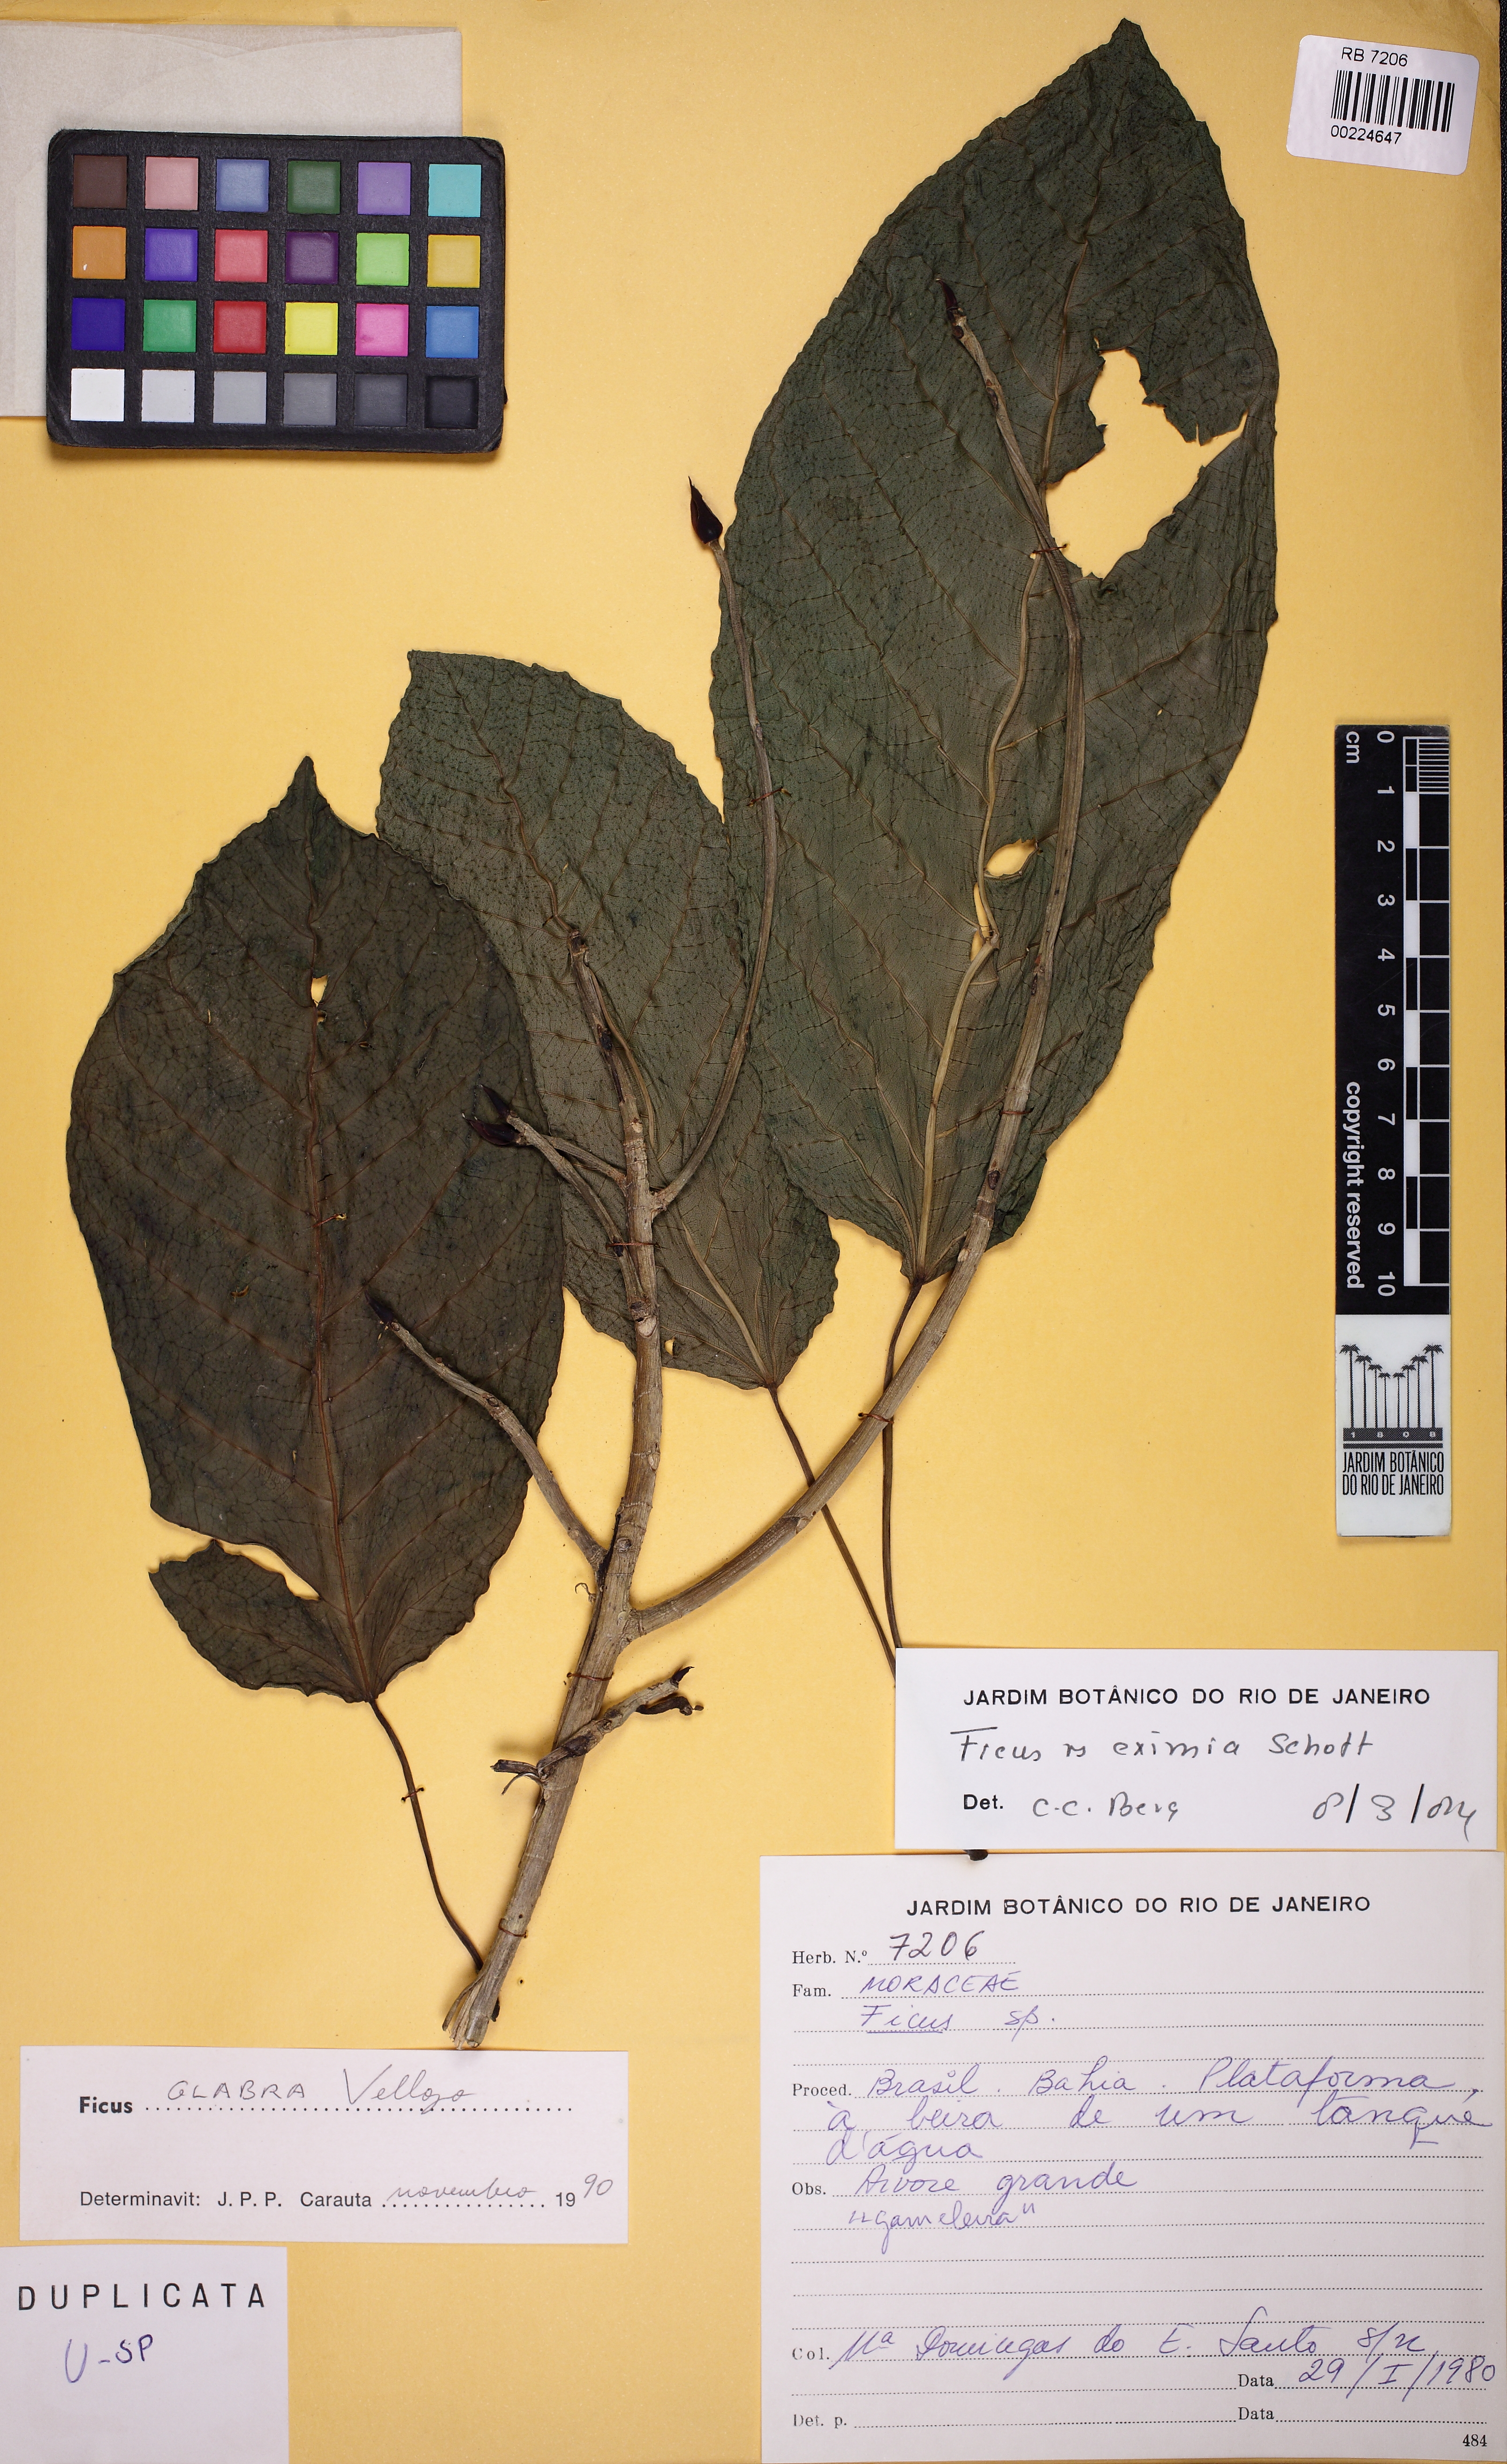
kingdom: Plantae
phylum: Tracheophyta
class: Magnoliopsida
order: Rosales
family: Moraceae
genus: Ficus
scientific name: Ficus eximia
